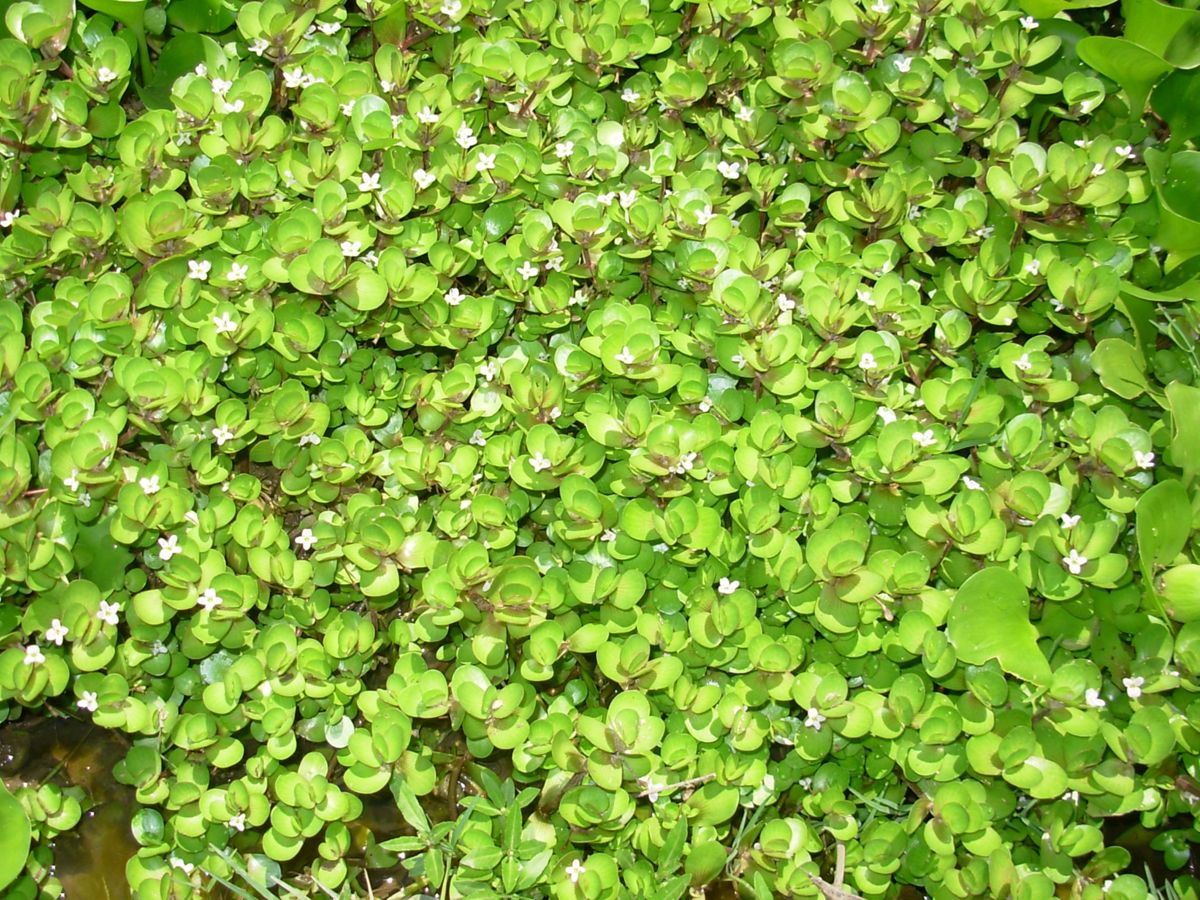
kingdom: Plantae
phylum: Tracheophyta
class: Magnoliopsida
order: Lamiales
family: Plantaginaceae
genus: Bacopa
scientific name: Bacopa repens
